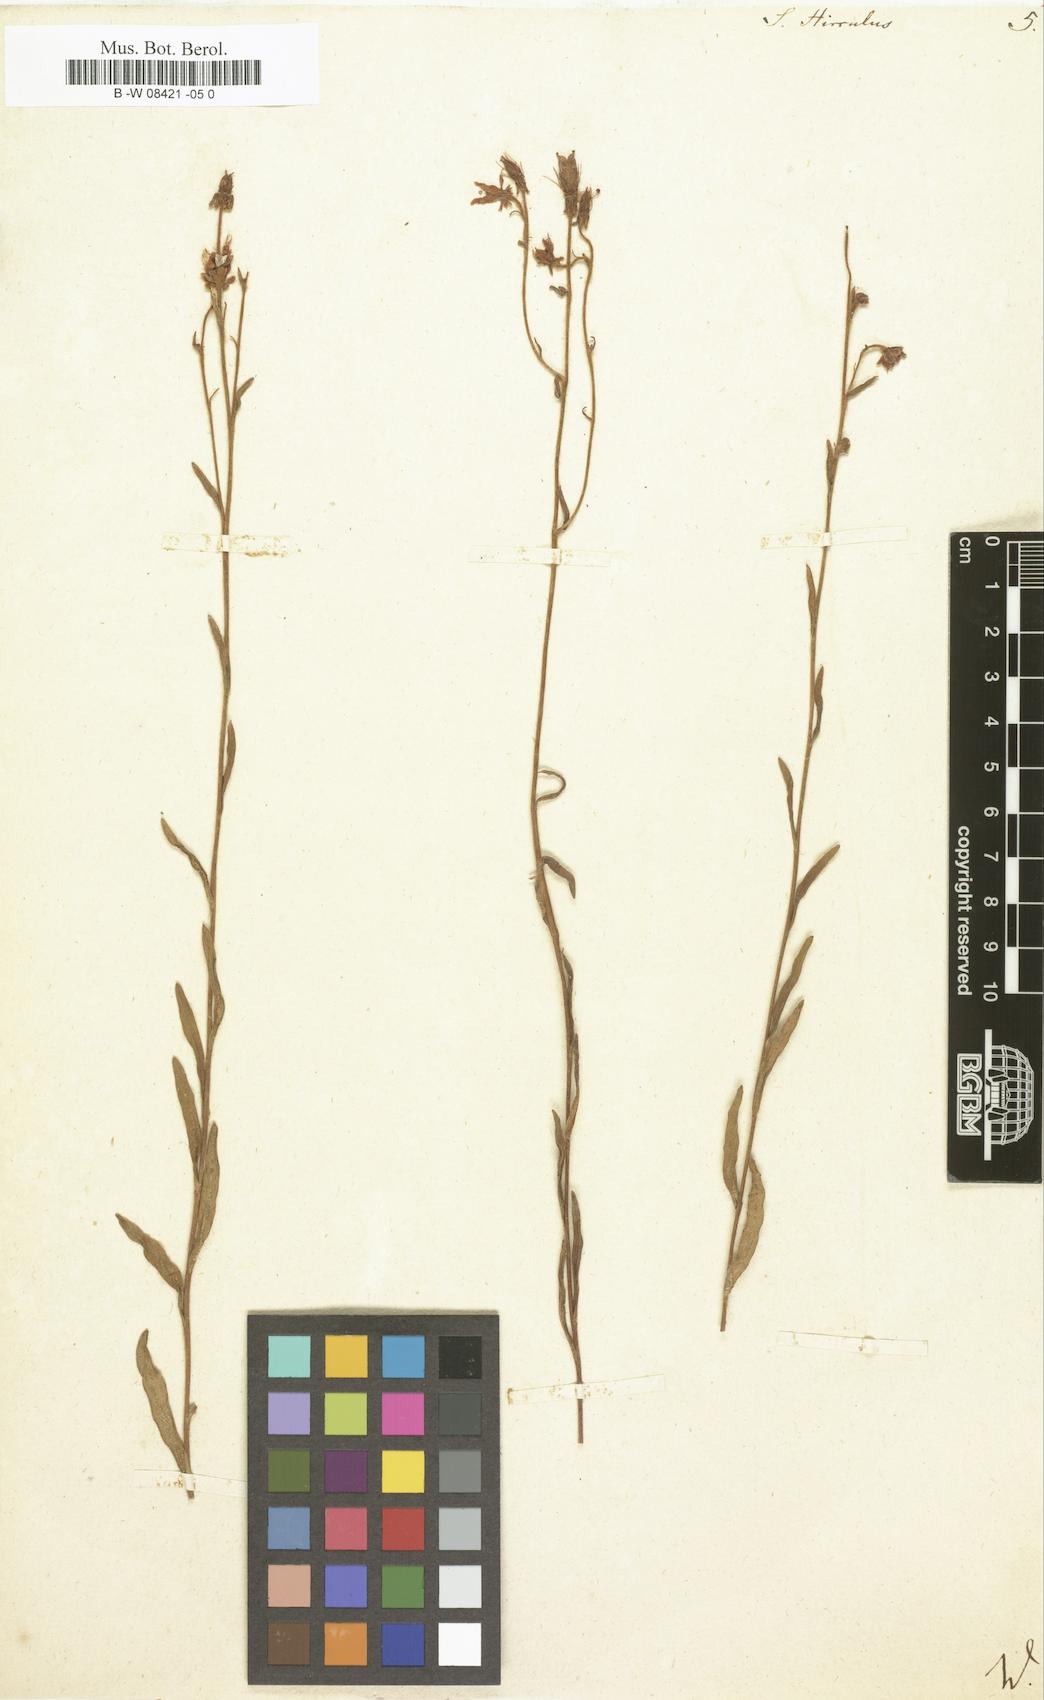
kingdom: Plantae
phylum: Tracheophyta
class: Magnoliopsida
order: Saxifragales
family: Saxifragaceae
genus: Saxifraga
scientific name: Saxifraga hirculus
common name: Yellow marsh saxifrage
